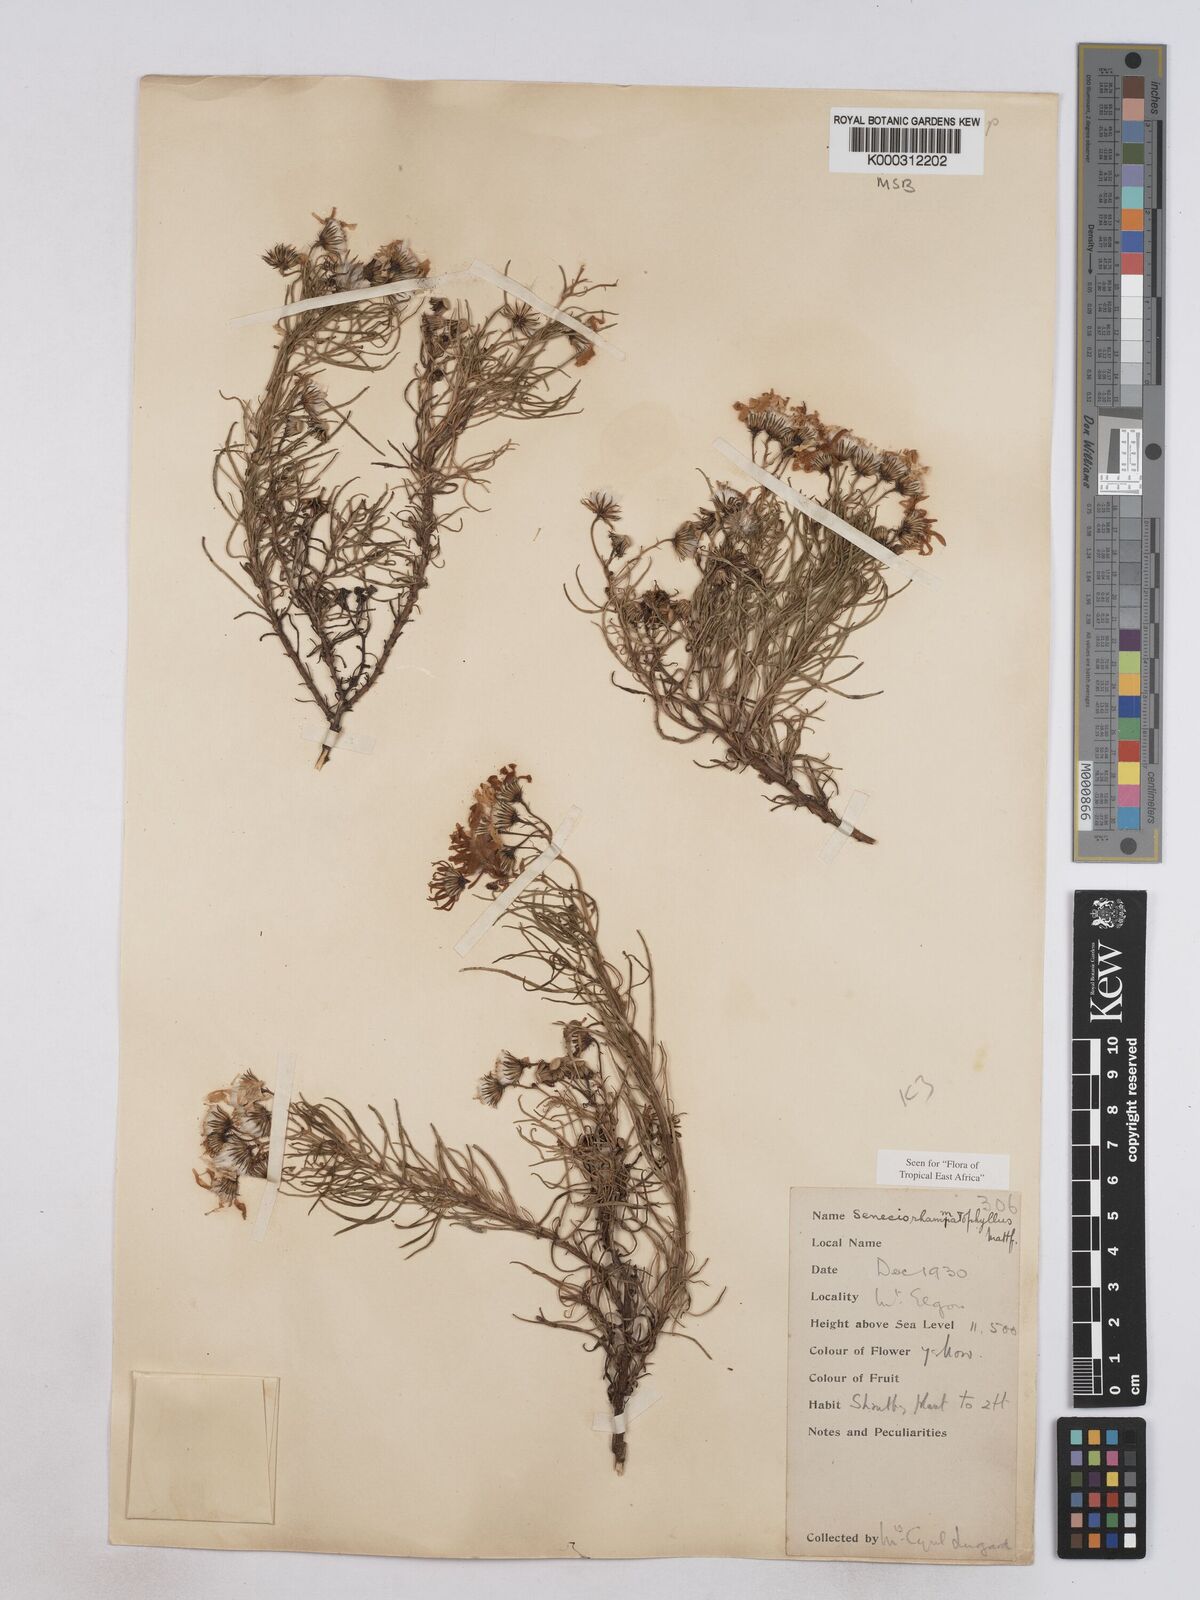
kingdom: Plantae
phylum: Tracheophyta
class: Magnoliopsida
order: Asterales
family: Asteraceae
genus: Senecio
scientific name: Senecio rhammatophyllus
